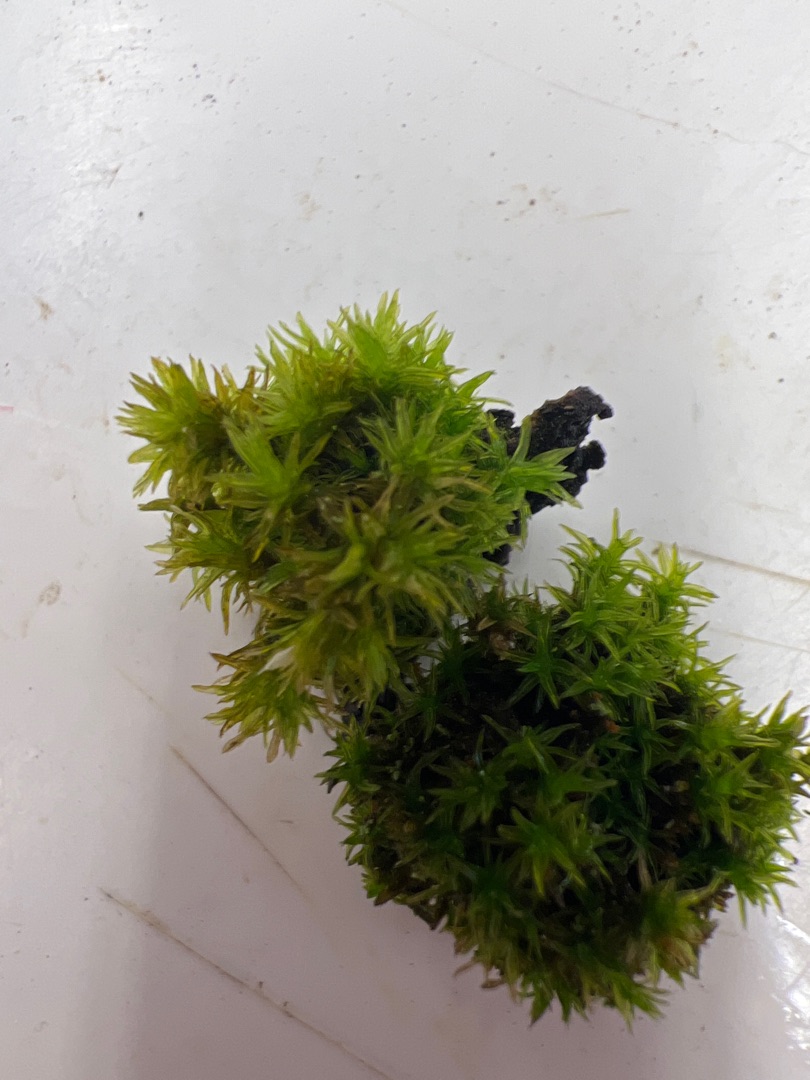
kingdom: Plantae
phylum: Bryophyta
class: Bryopsida
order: Orthotrichales
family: Orthotrichaceae
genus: Orthotrichum
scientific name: Orthotrichum
